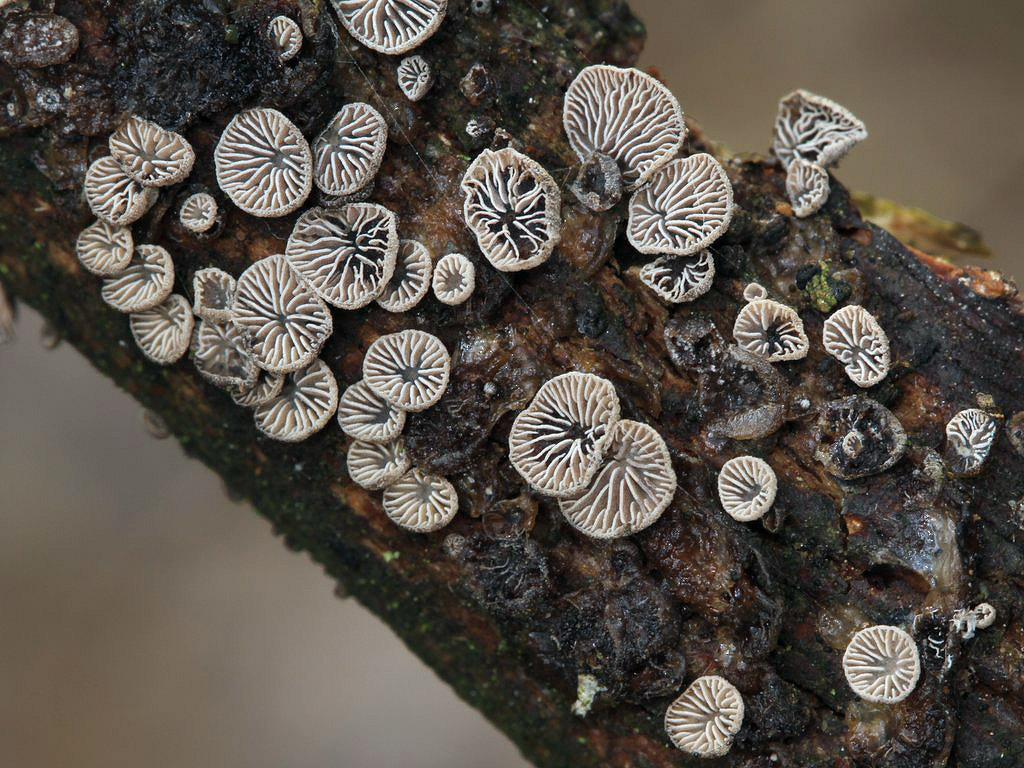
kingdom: Fungi
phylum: Basidiomycota
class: Agaricomycetes
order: Agaricales
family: Pleurotaceae
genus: Resupinatus
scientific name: Resupinatus trichotis
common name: mørkfiltet barkhat
